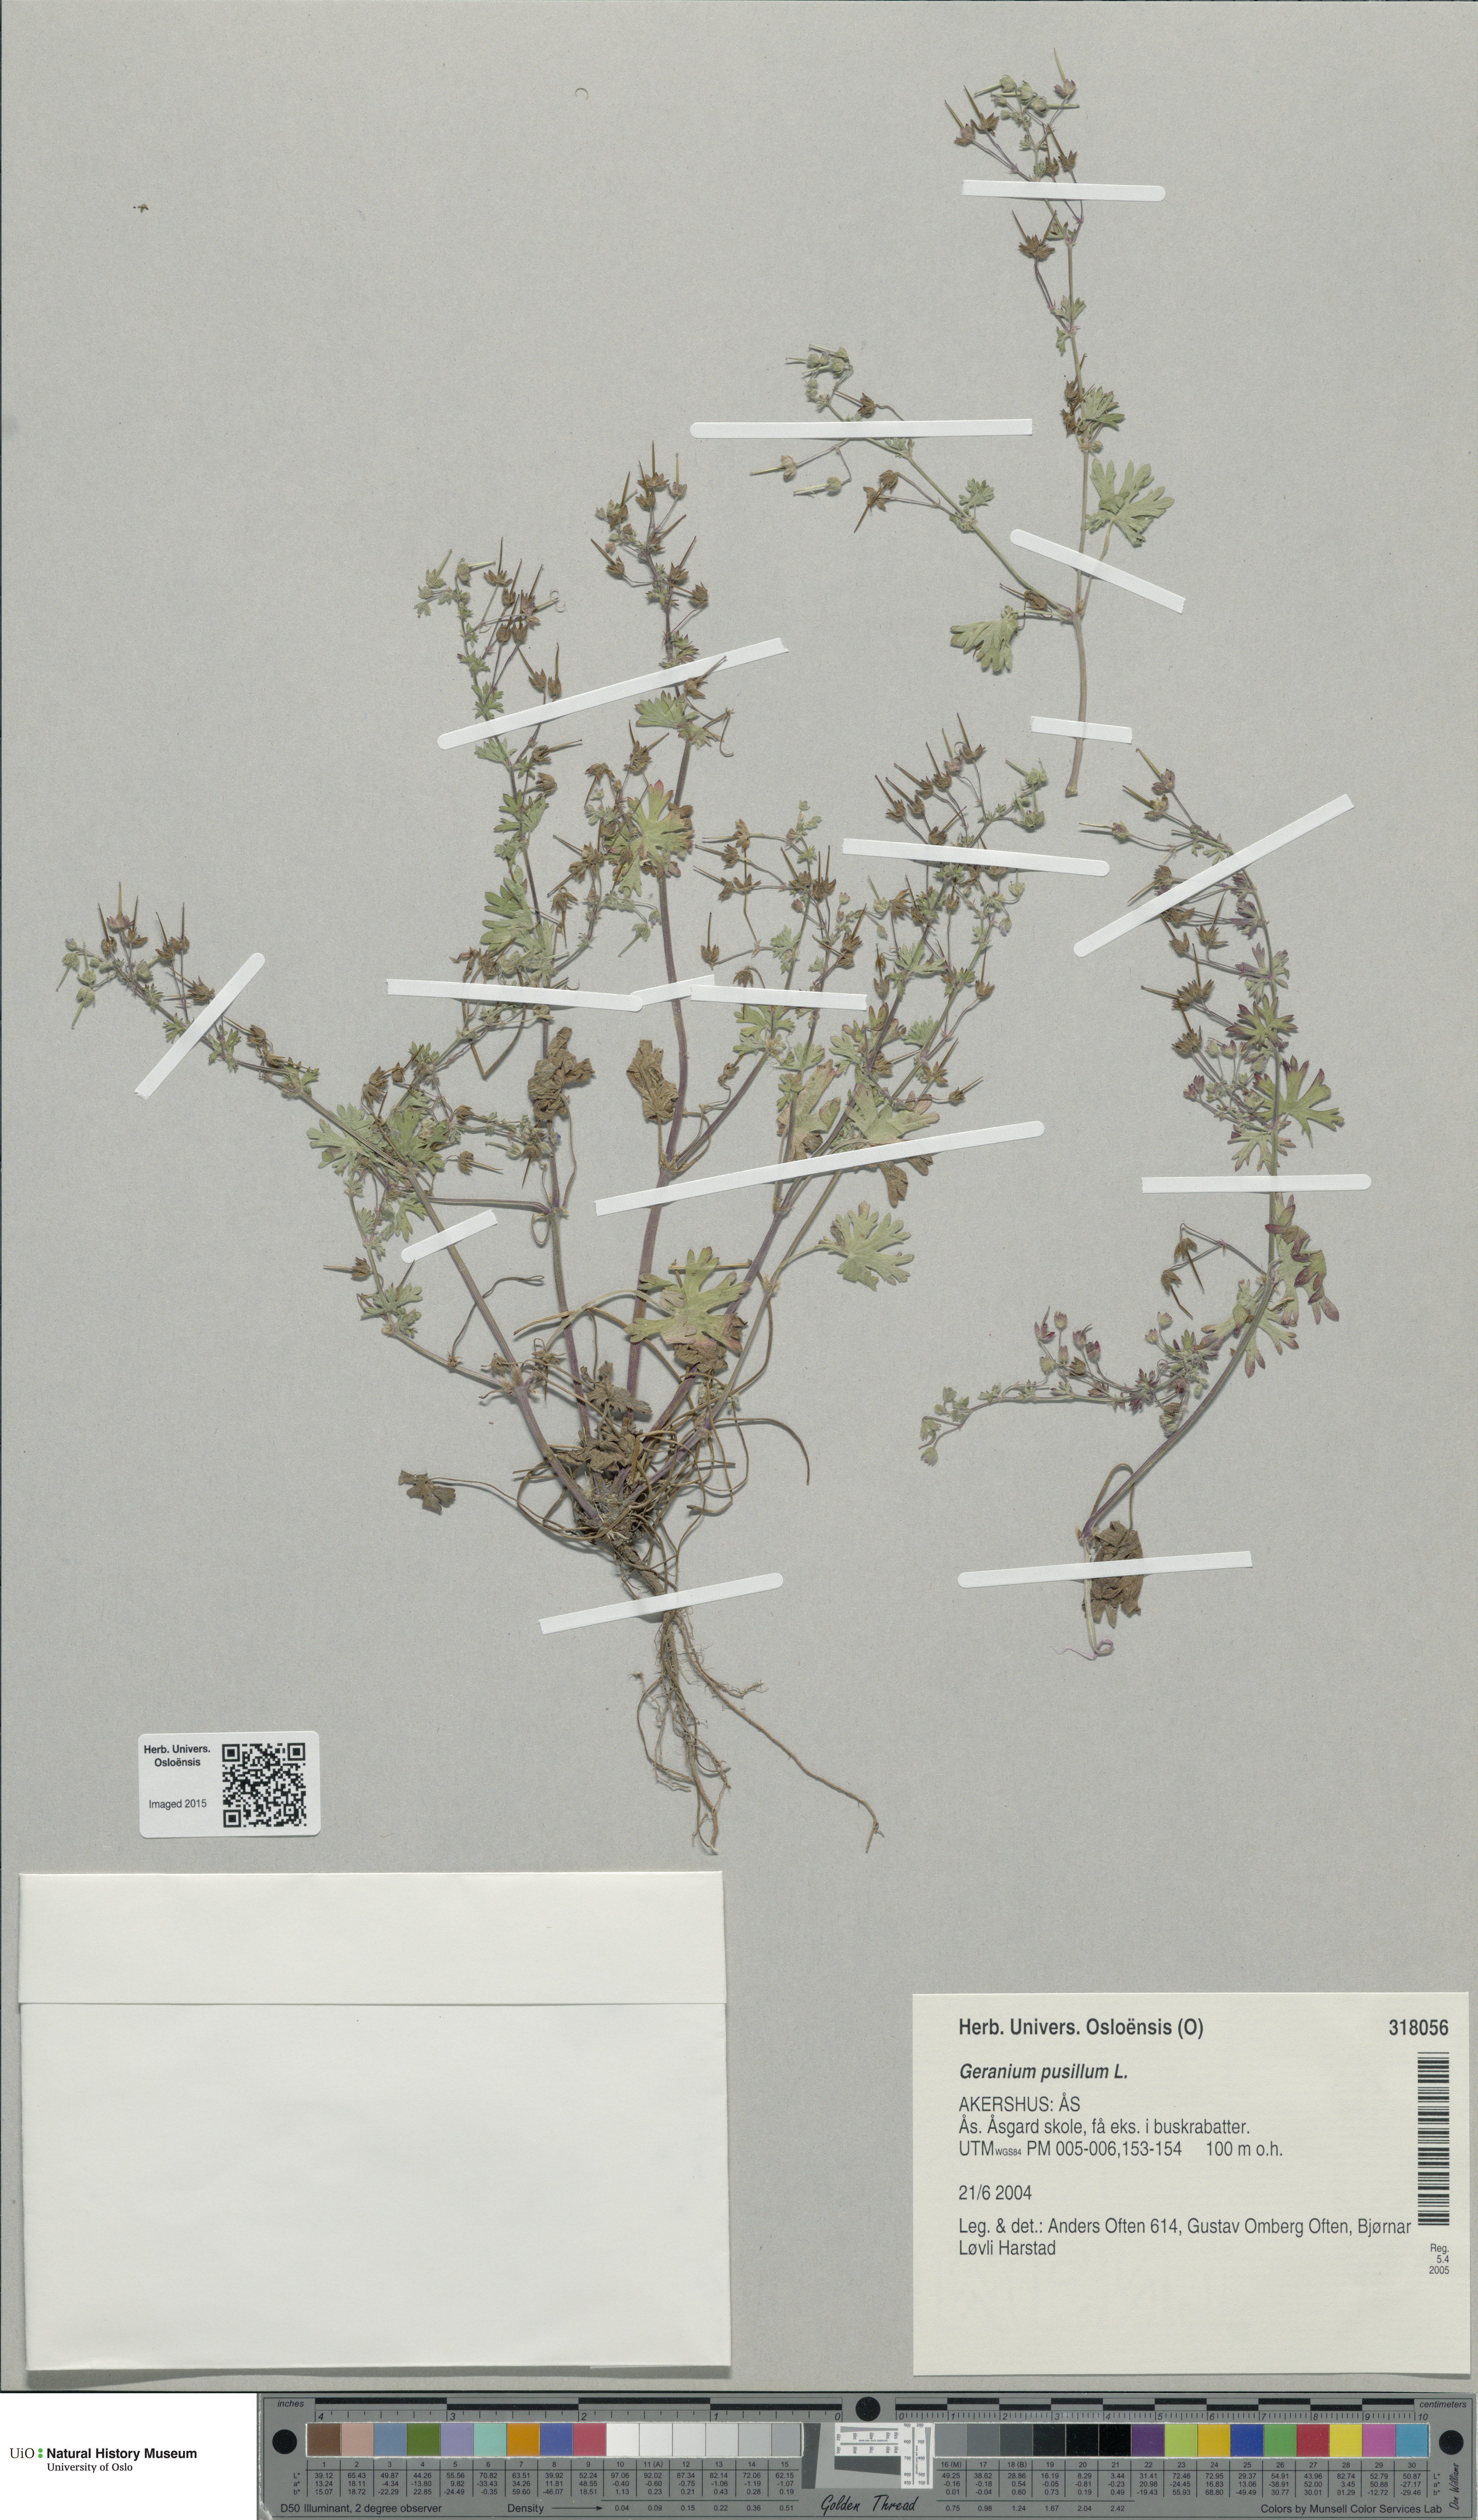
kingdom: Plantae
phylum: Tracheophyta
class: Magnoliopsida
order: Geraniales
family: Geraniaceae
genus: Geranium
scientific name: Geranium pusillum
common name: Small geranium
